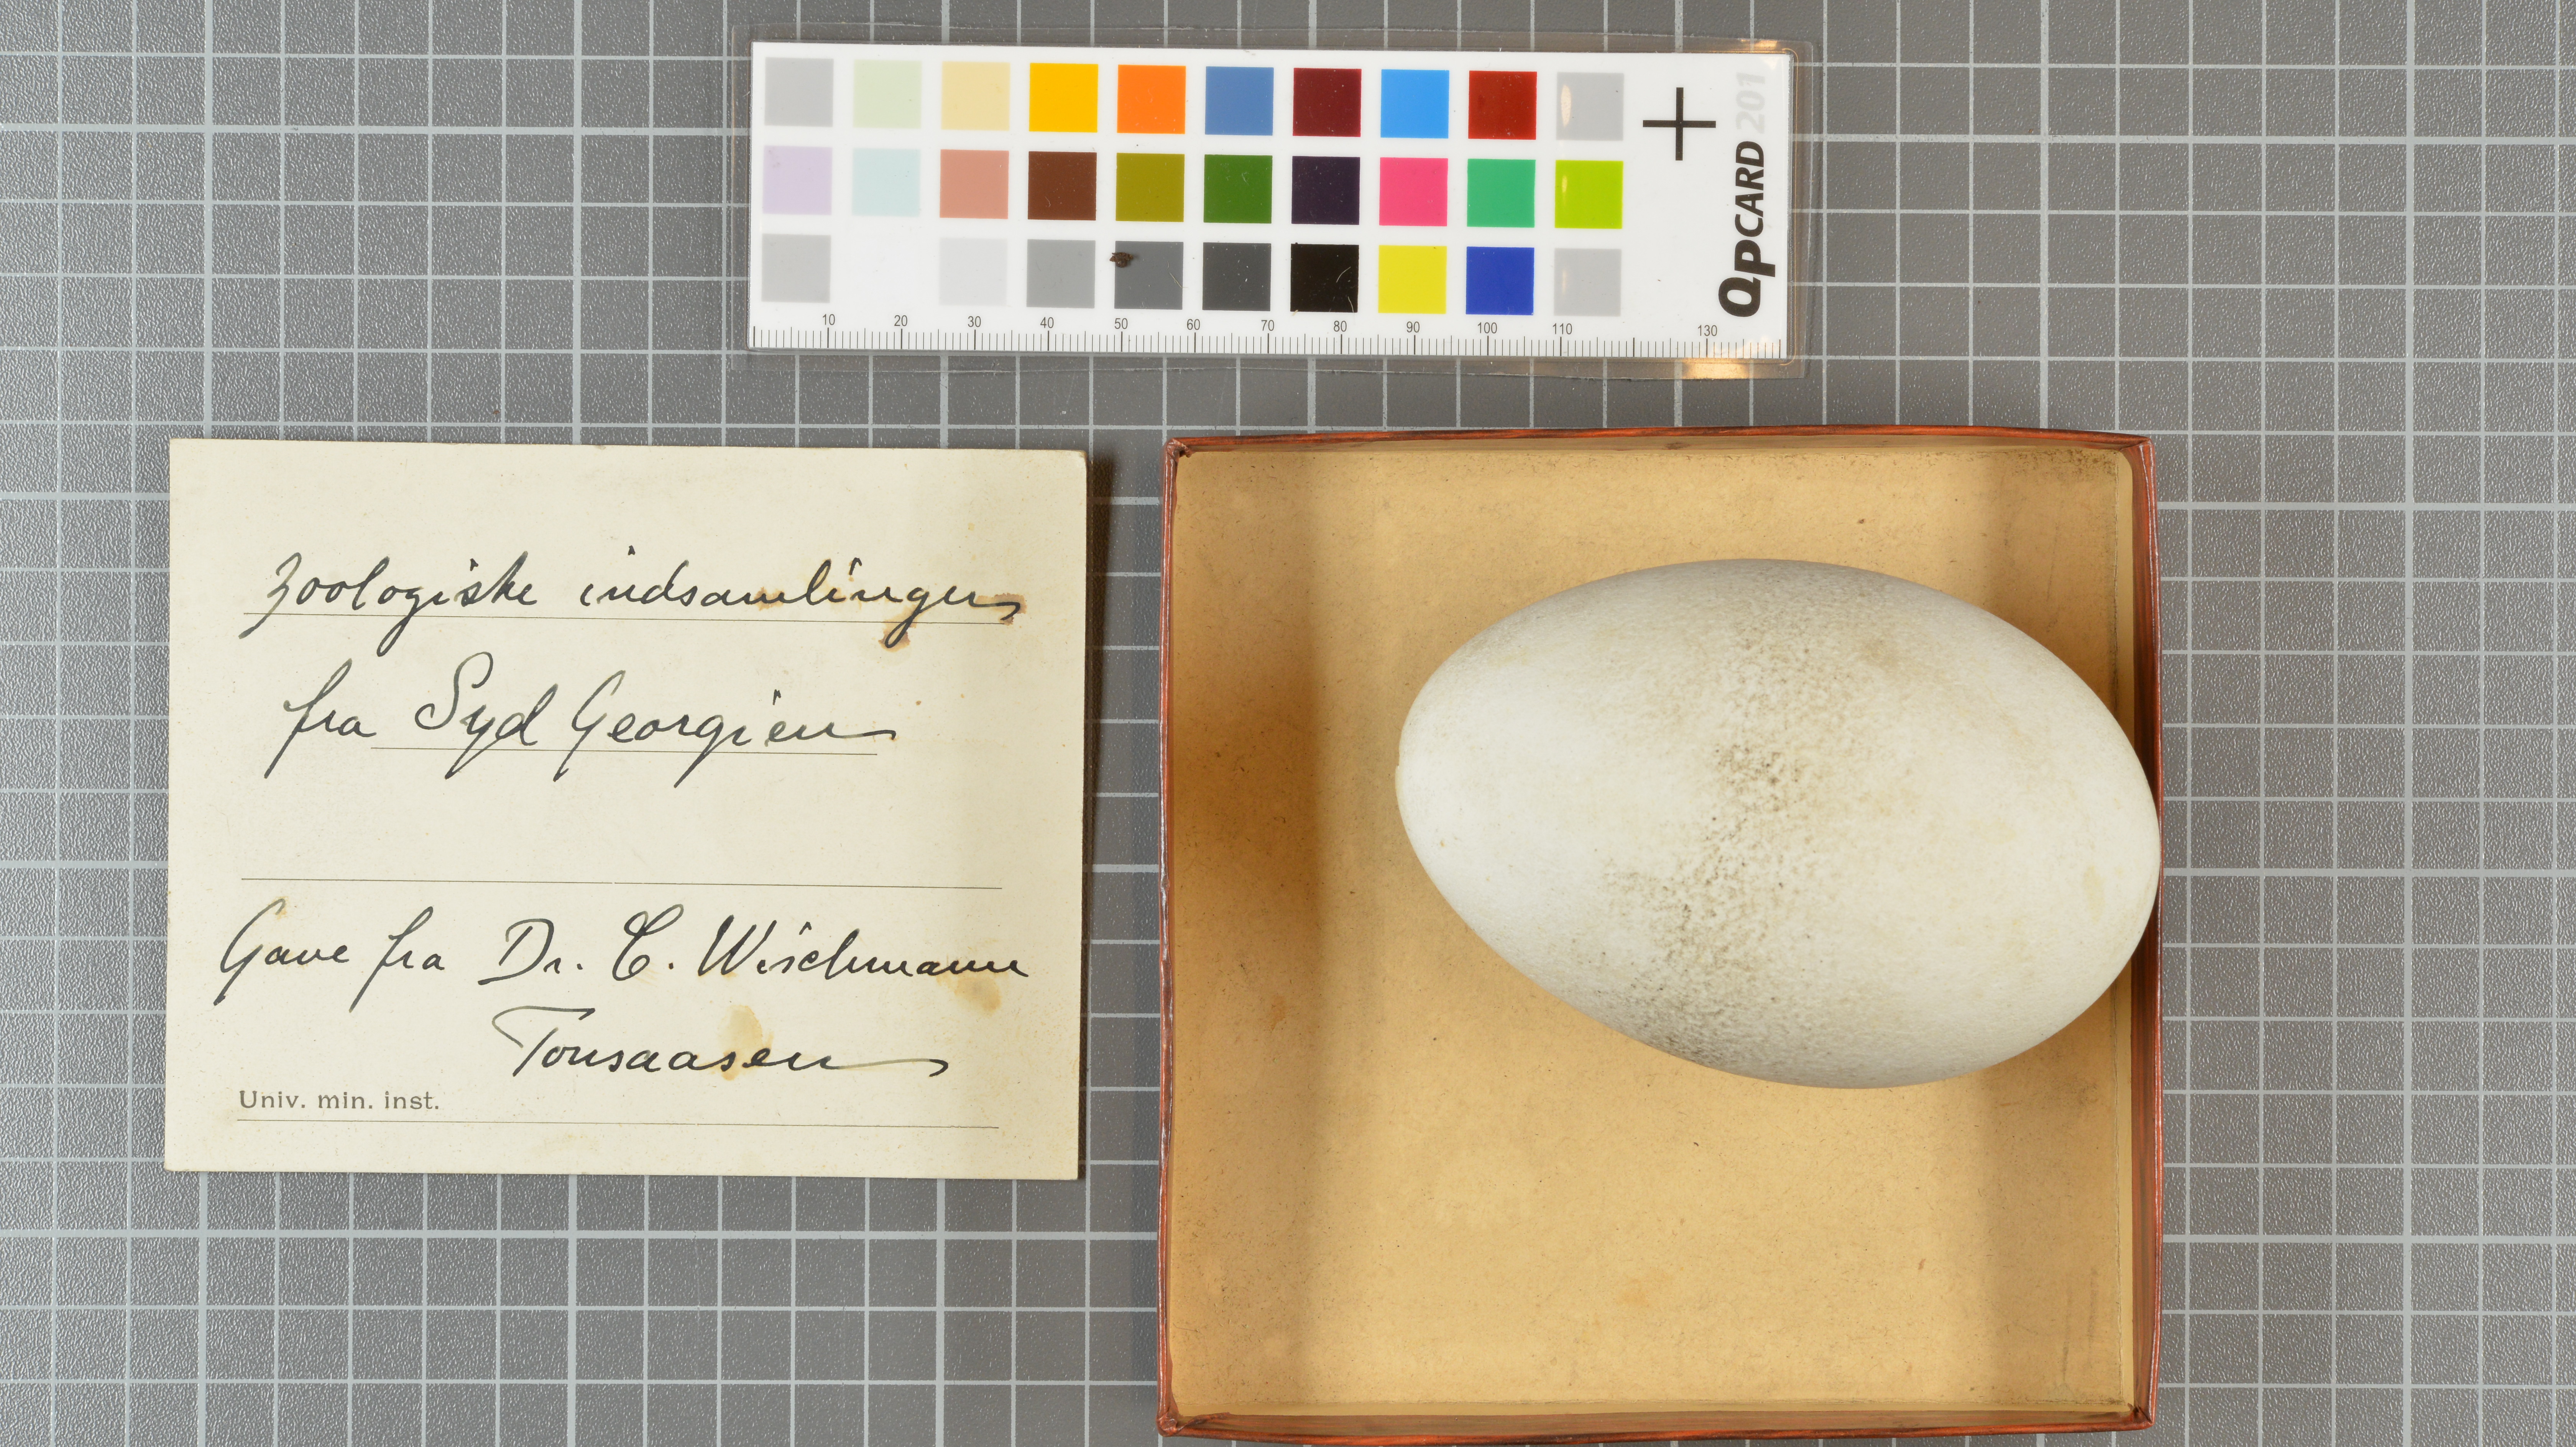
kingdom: Animalia
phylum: Chordata
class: Aves
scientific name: Aves
